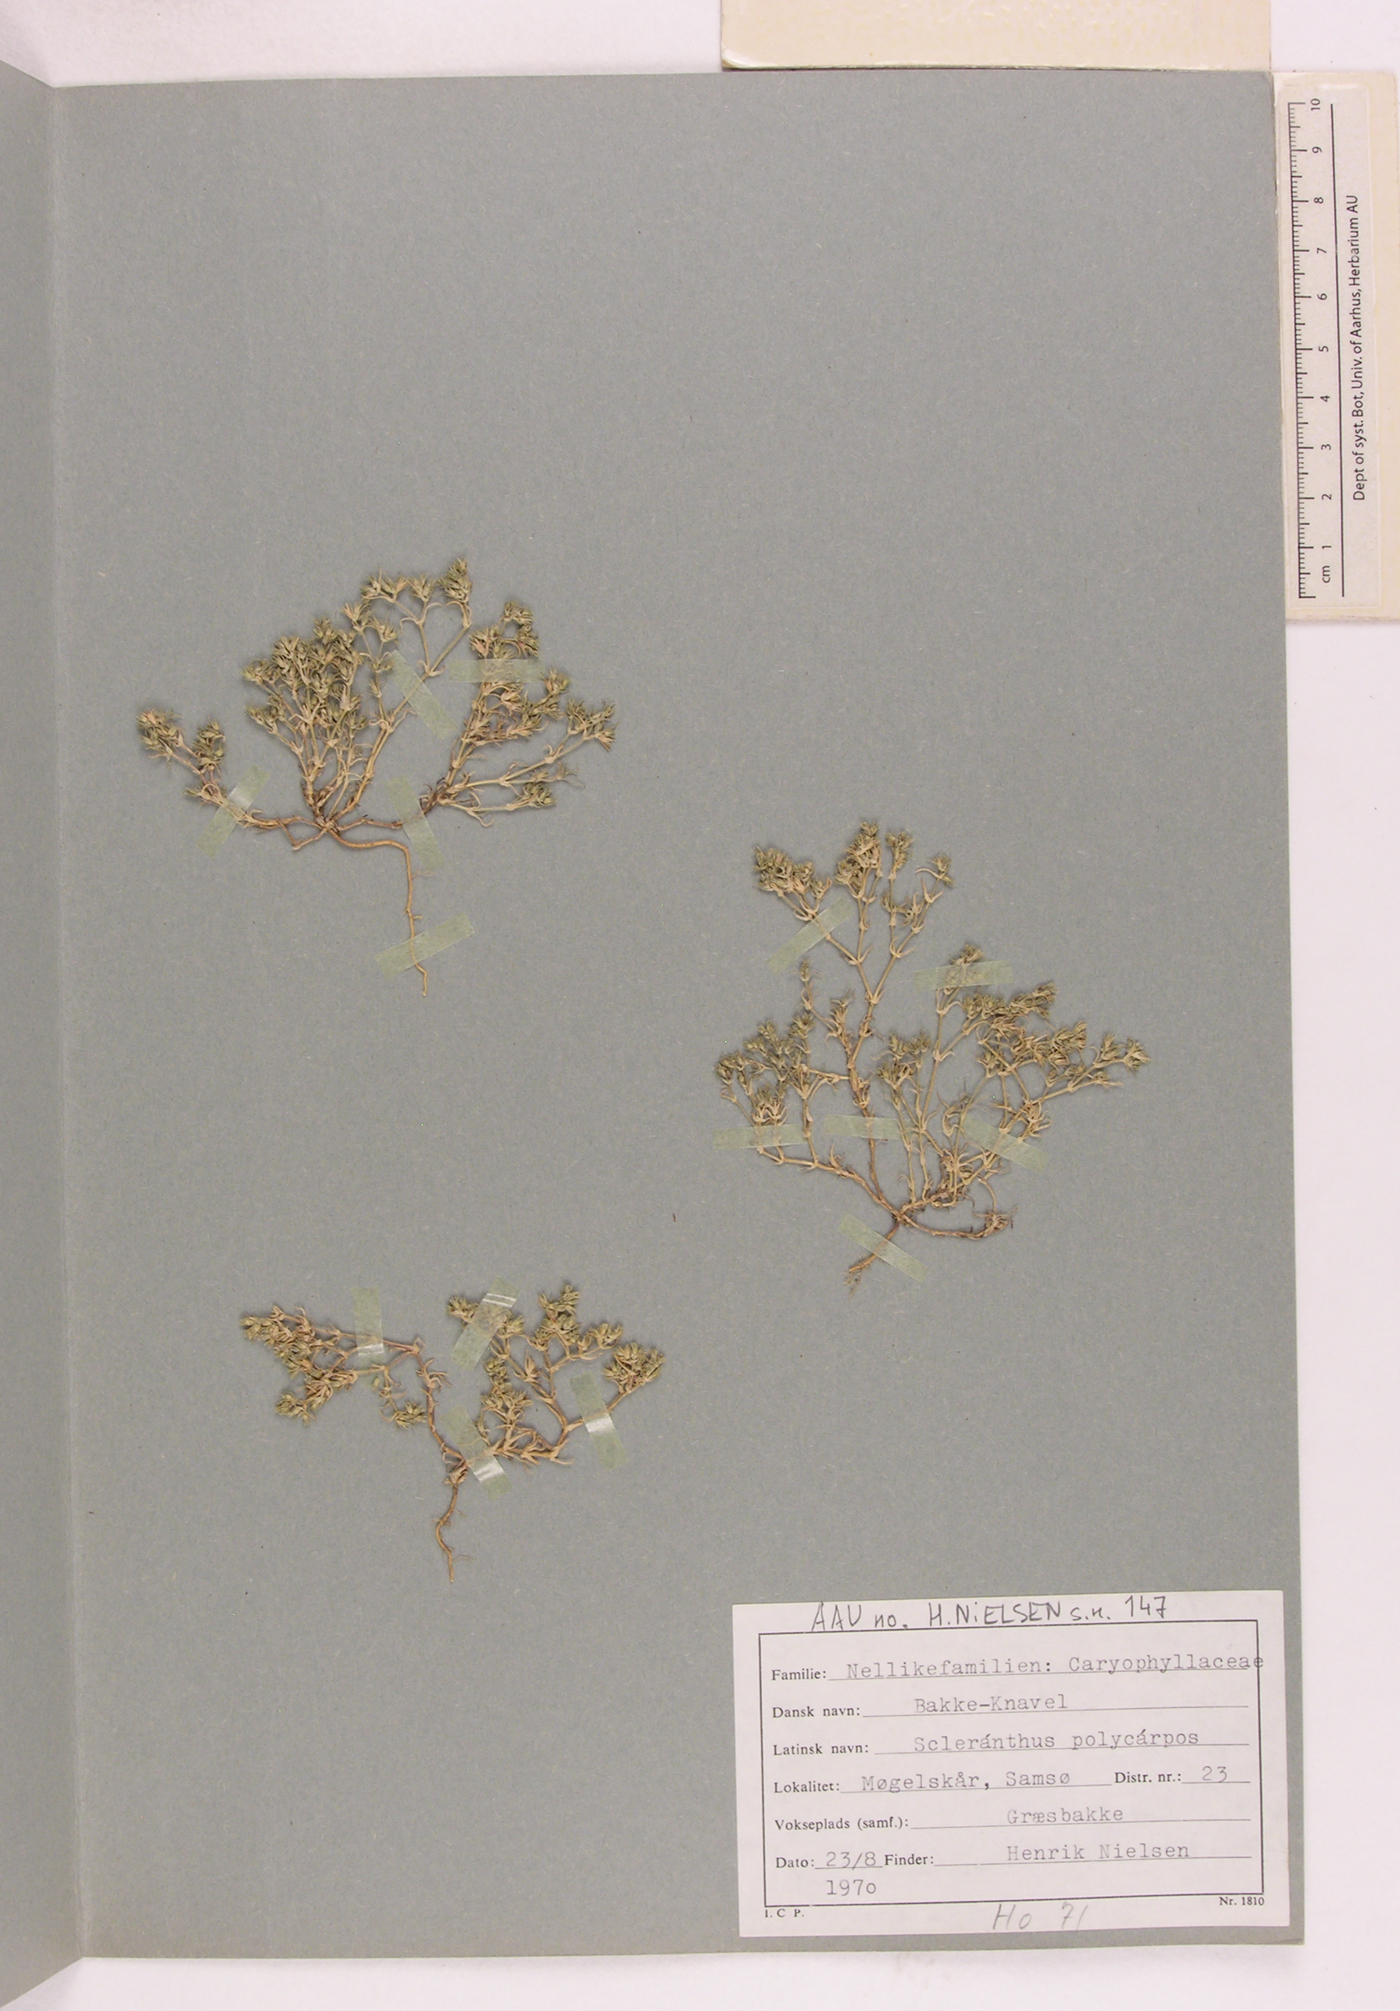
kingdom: Plantae
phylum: Tracheophyta
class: Magnoliopsida
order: Caryophyllales
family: Caryophyllaceae
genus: Scleranthus
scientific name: Scleranthus annuus
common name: Annual knawel
